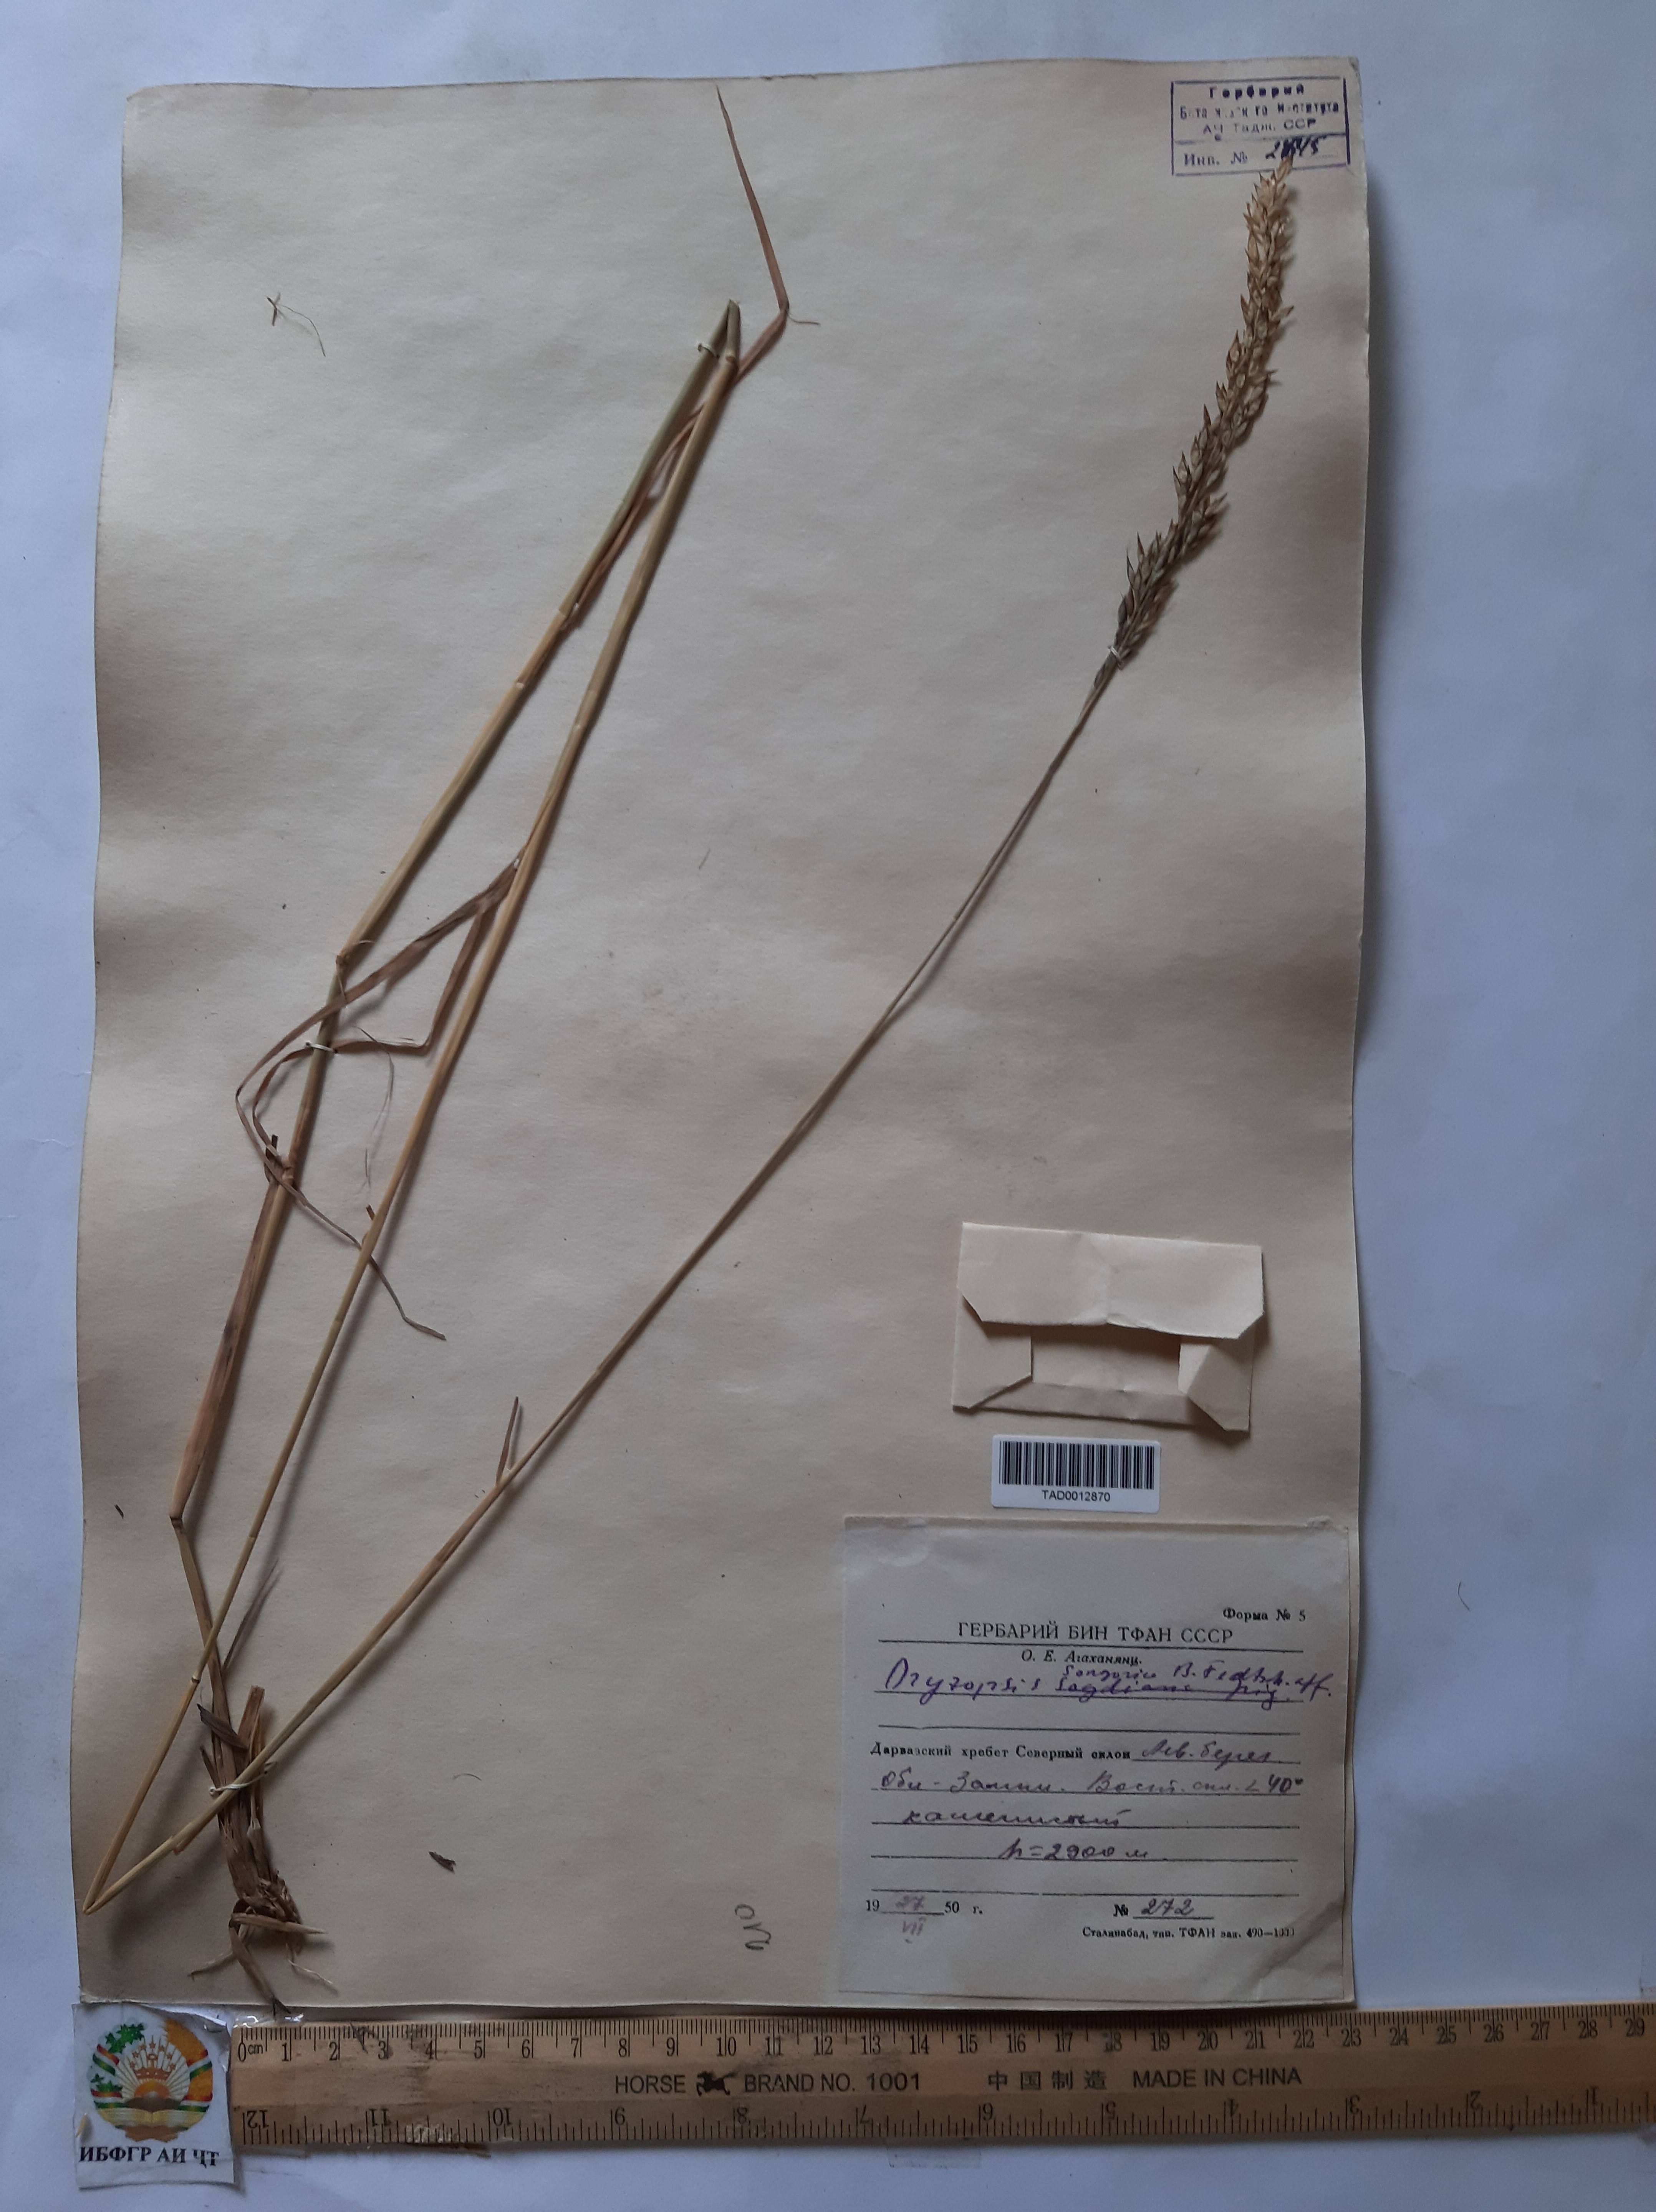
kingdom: Plantae
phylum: Tracheophyta
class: Liliopsida
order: Poales
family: Poaceae
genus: Piptatherum
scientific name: Piptatherum ferganense
